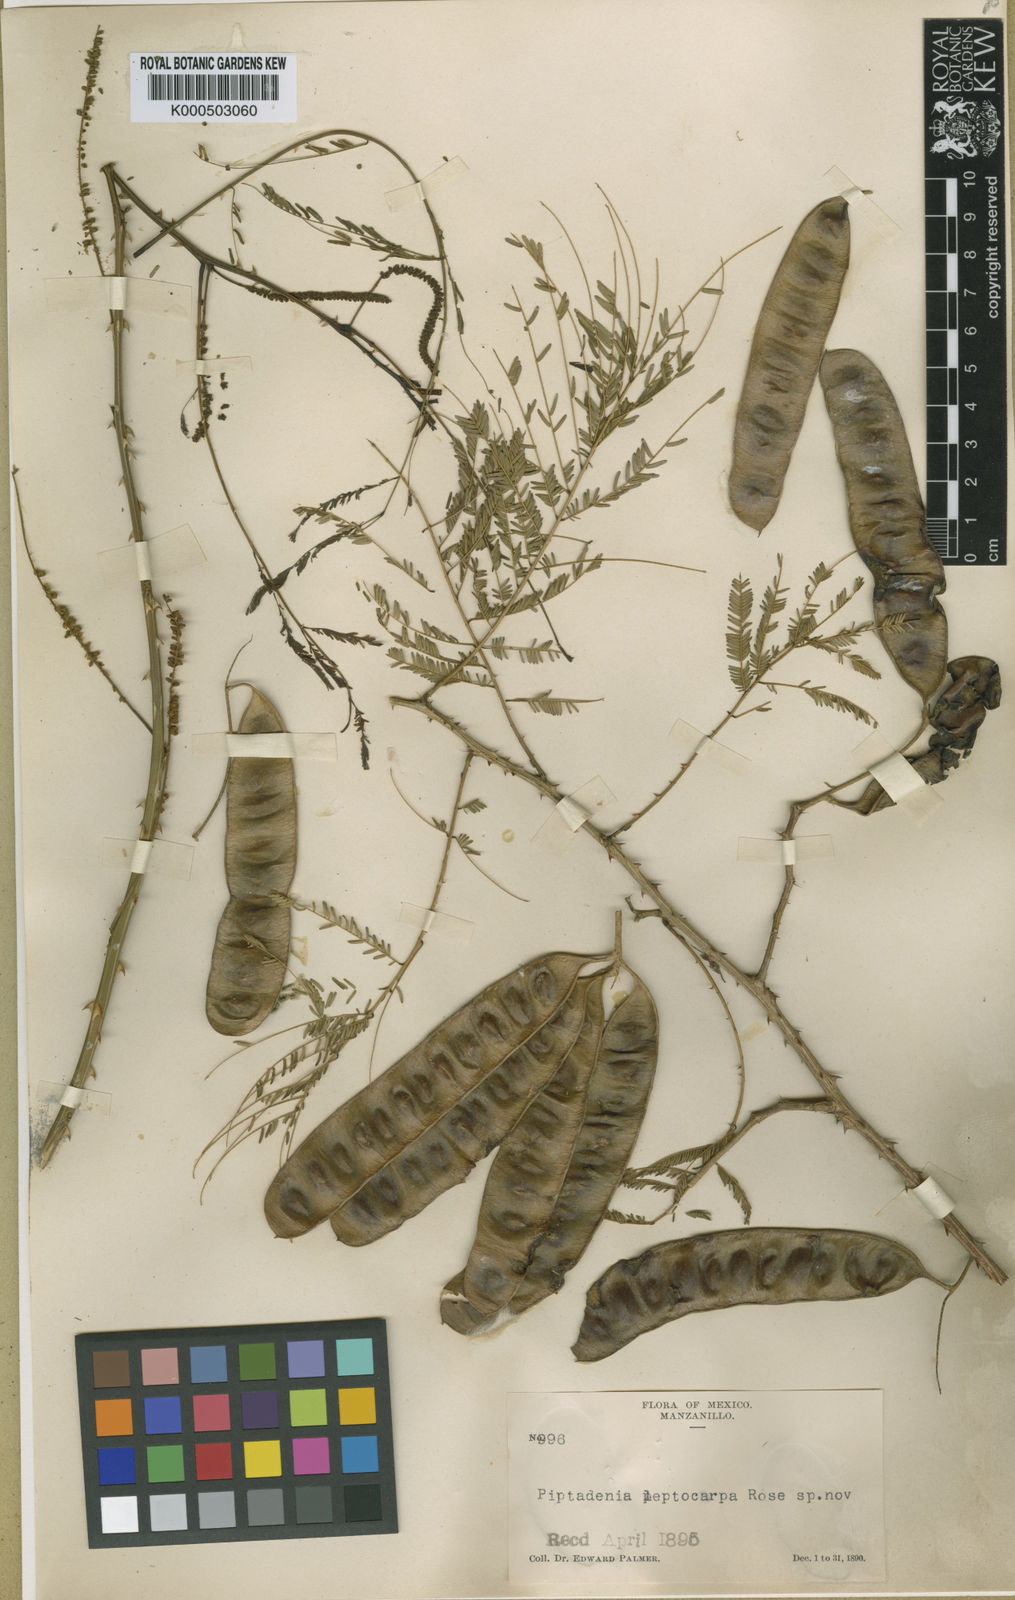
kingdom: Plantae
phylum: Tracheophyta
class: Magnoliopsida
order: Fabales
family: Fabaceae
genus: Piptadenia
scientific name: Piptadenia retusa
